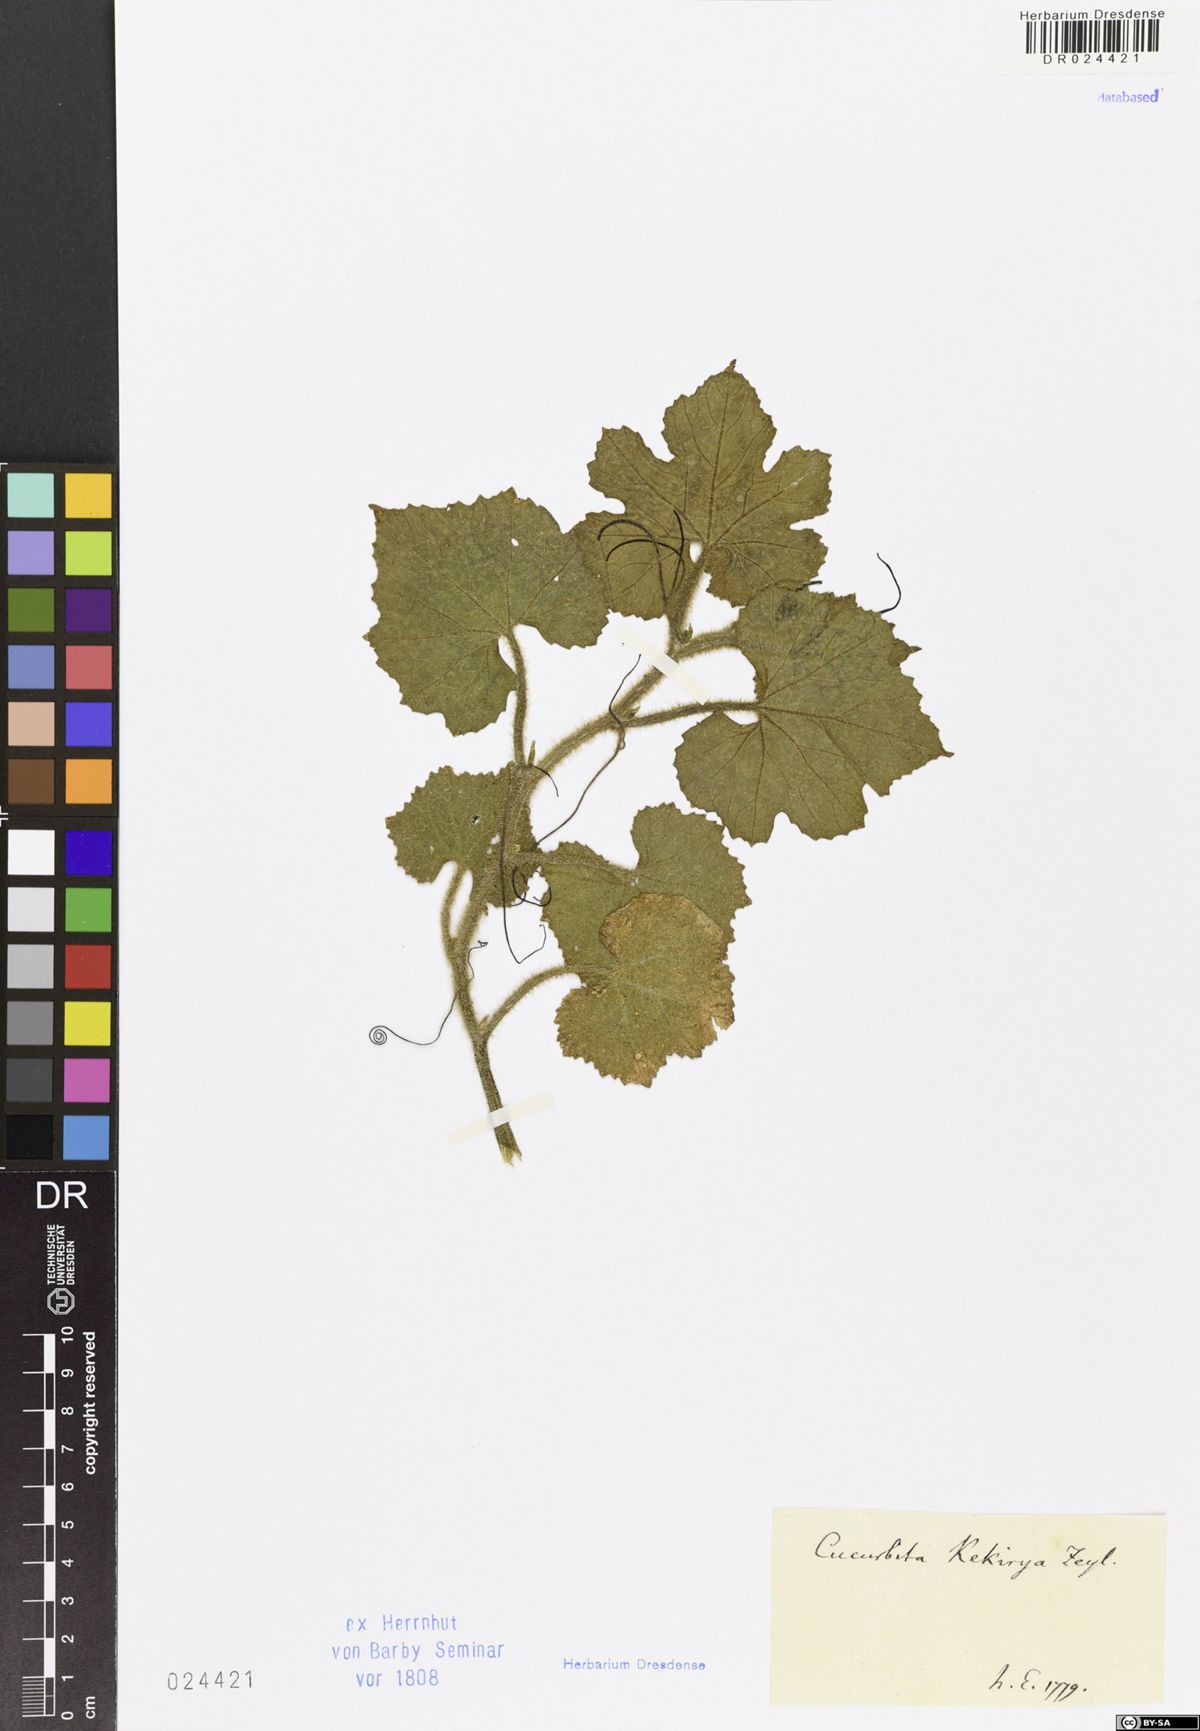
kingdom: Plantae
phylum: Tracheophyta
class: Magnoliopsida
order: Cucurbitales
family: Cucurbitaceae
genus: Cucurbita
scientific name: Cucurbita
